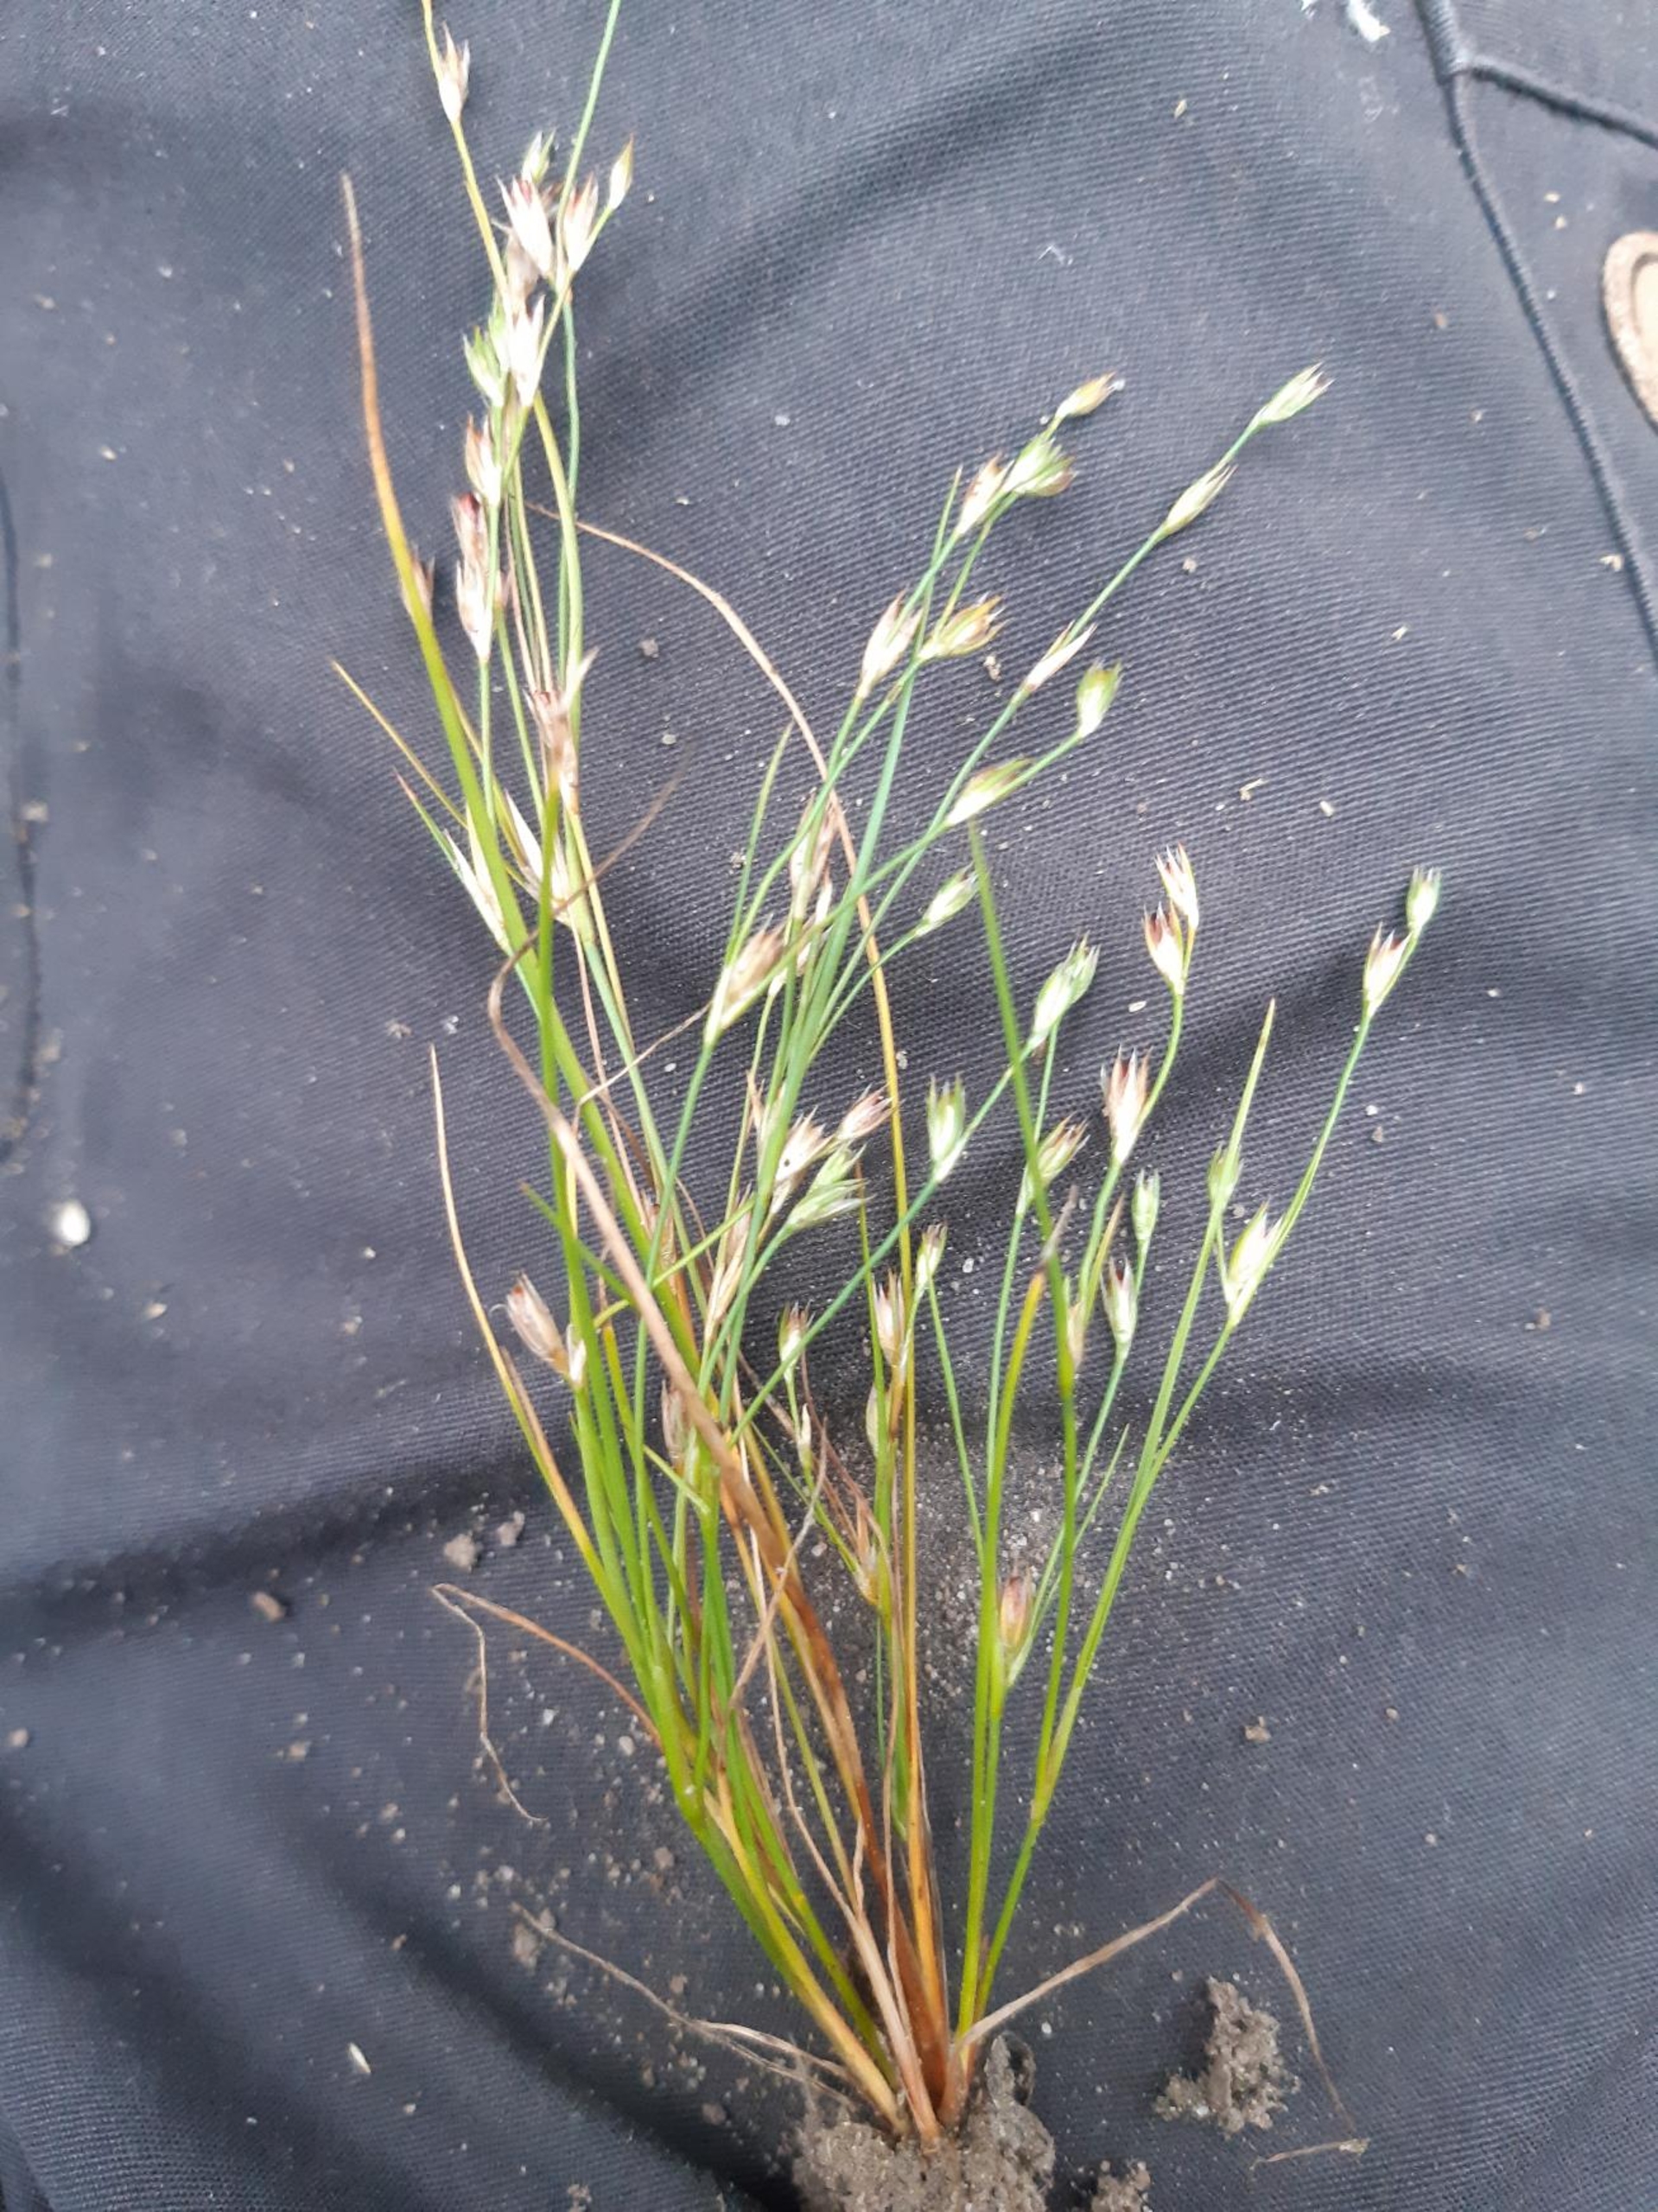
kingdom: Plantae
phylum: Tracheophyta
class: Liliopsida
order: Poales
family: Juncaceae
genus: Juncus
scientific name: Juncus bufonius
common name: Tudse-siv
